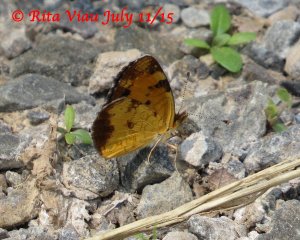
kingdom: Animalia
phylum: Arthropoda
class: Insecta
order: Lepidoptera
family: Nymphalidae
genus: Phyciodes
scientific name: Phyciodes tharos
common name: Northern Crescent
